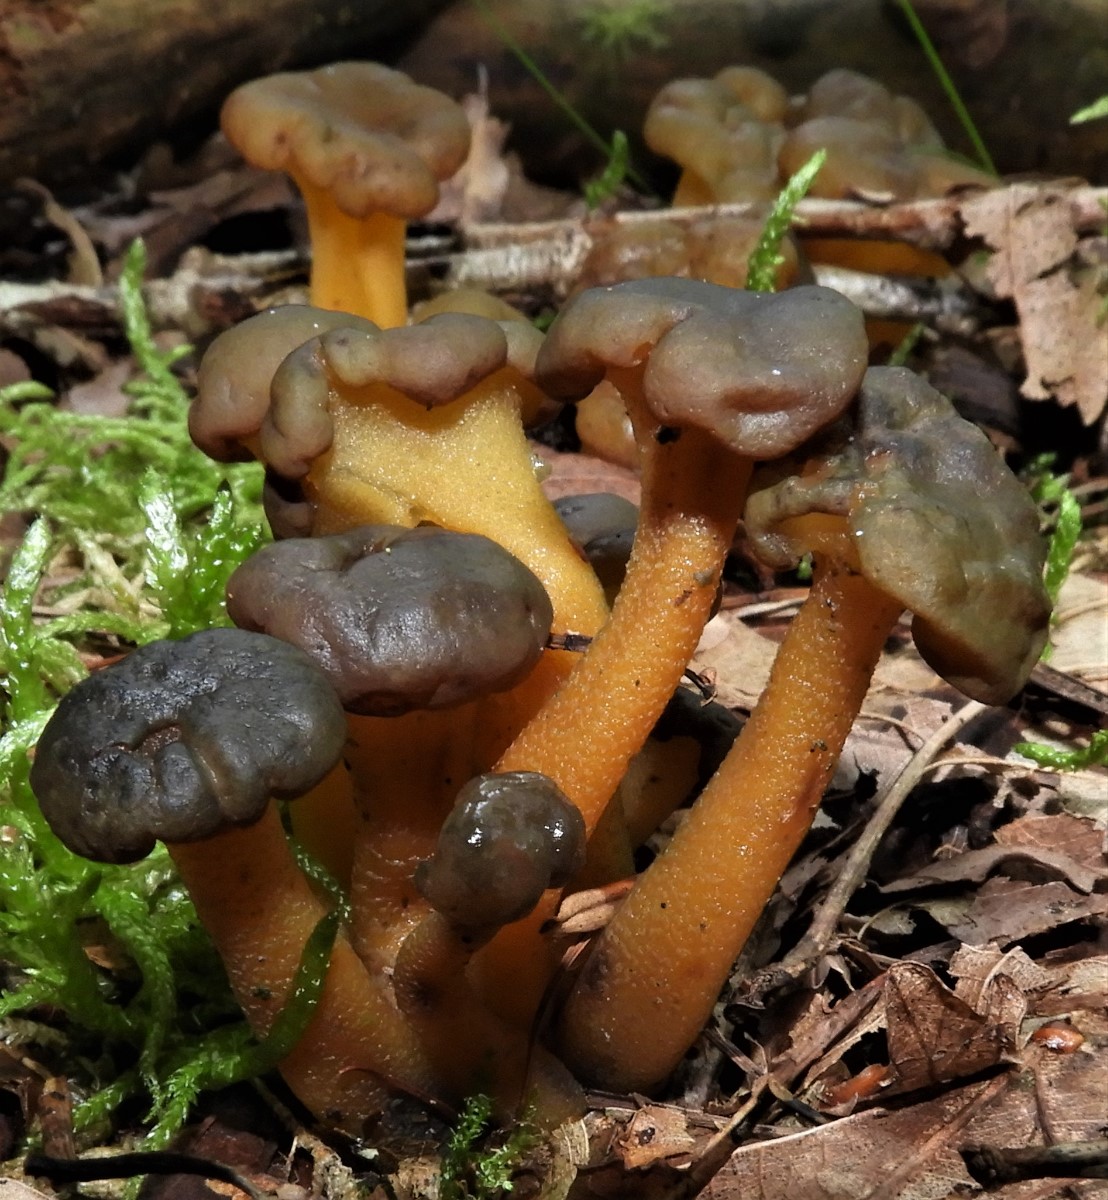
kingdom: Fungi
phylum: Ascomycota
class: Leotiomycetes
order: Leotiales
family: Leotiaceae
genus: Leotia
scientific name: Leotia lubrica
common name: ravsvamp
